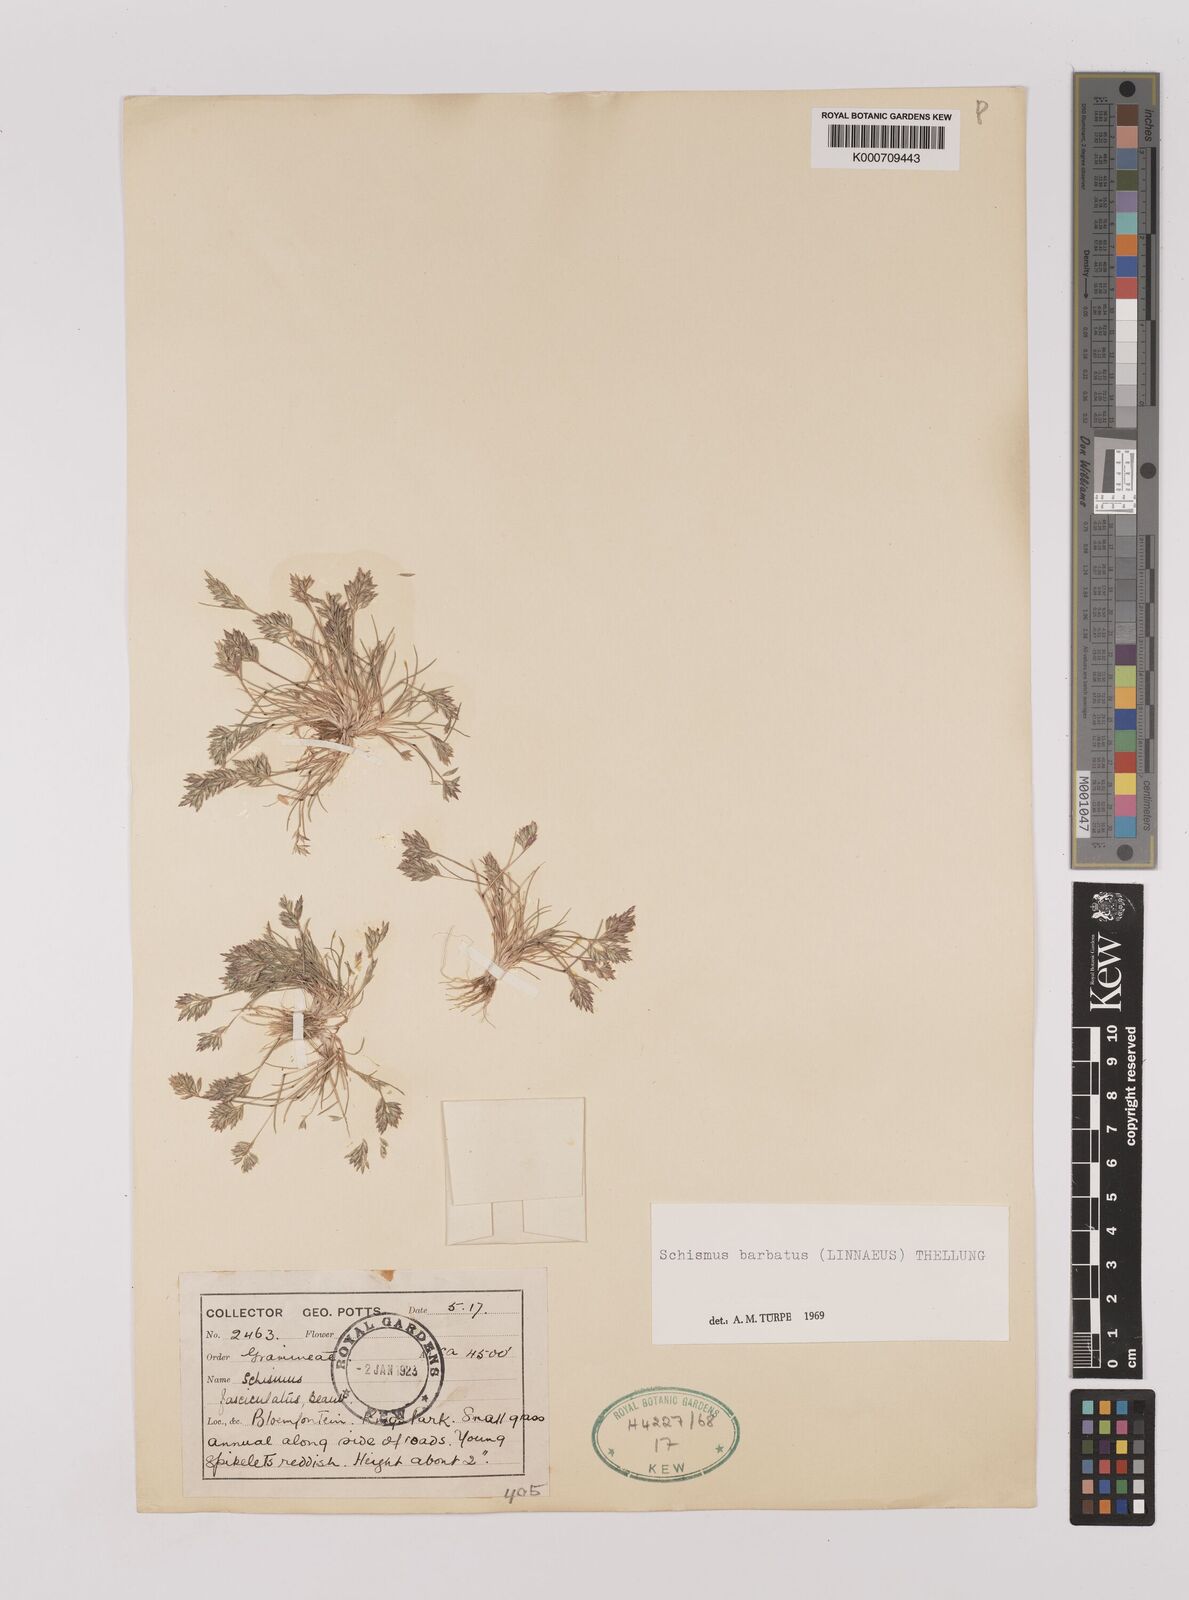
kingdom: Plantae
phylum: Tracheophyta
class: Liliopsida
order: Poales
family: Poaceae
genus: Schismus
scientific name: Schismus barbatus
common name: Kelch-grass
